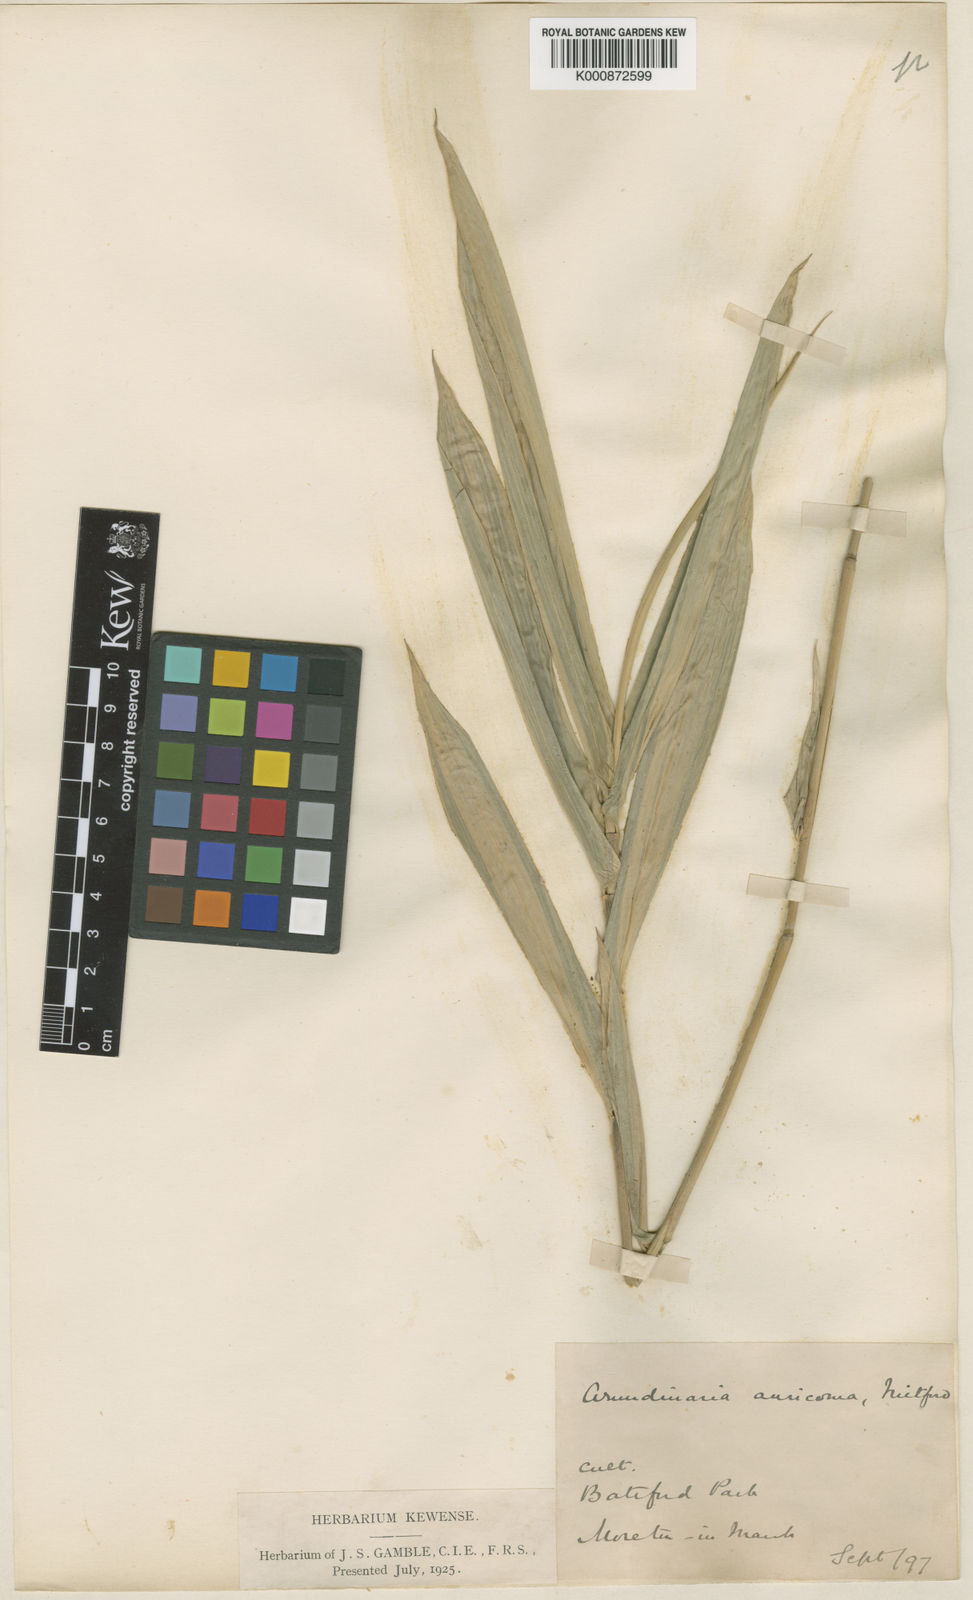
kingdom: Plantae
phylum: Tracheophyta
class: Liliopsida
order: Poales
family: Poaceae
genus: Pleioblastus
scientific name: Pleioblastus viridistriatus
